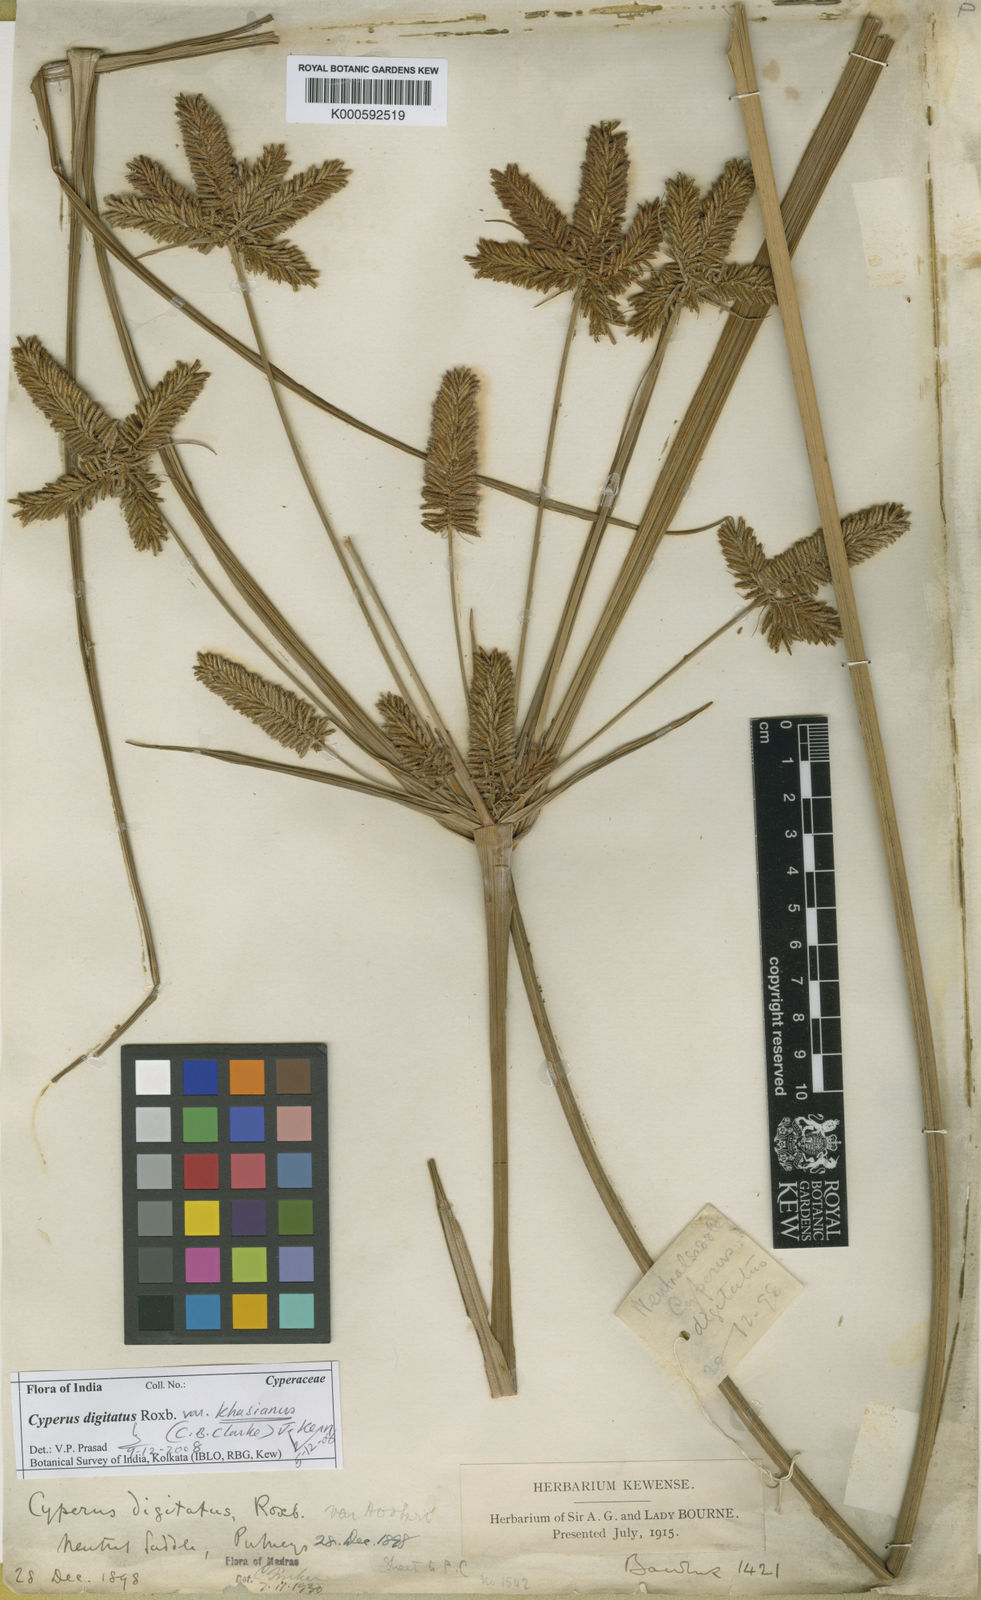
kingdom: Plantae
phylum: Tracheophyta
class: Liliopsida
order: Poales
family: Cyperaceae
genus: Cyperus
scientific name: Cyperus digitatus
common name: Finger flatsedge
